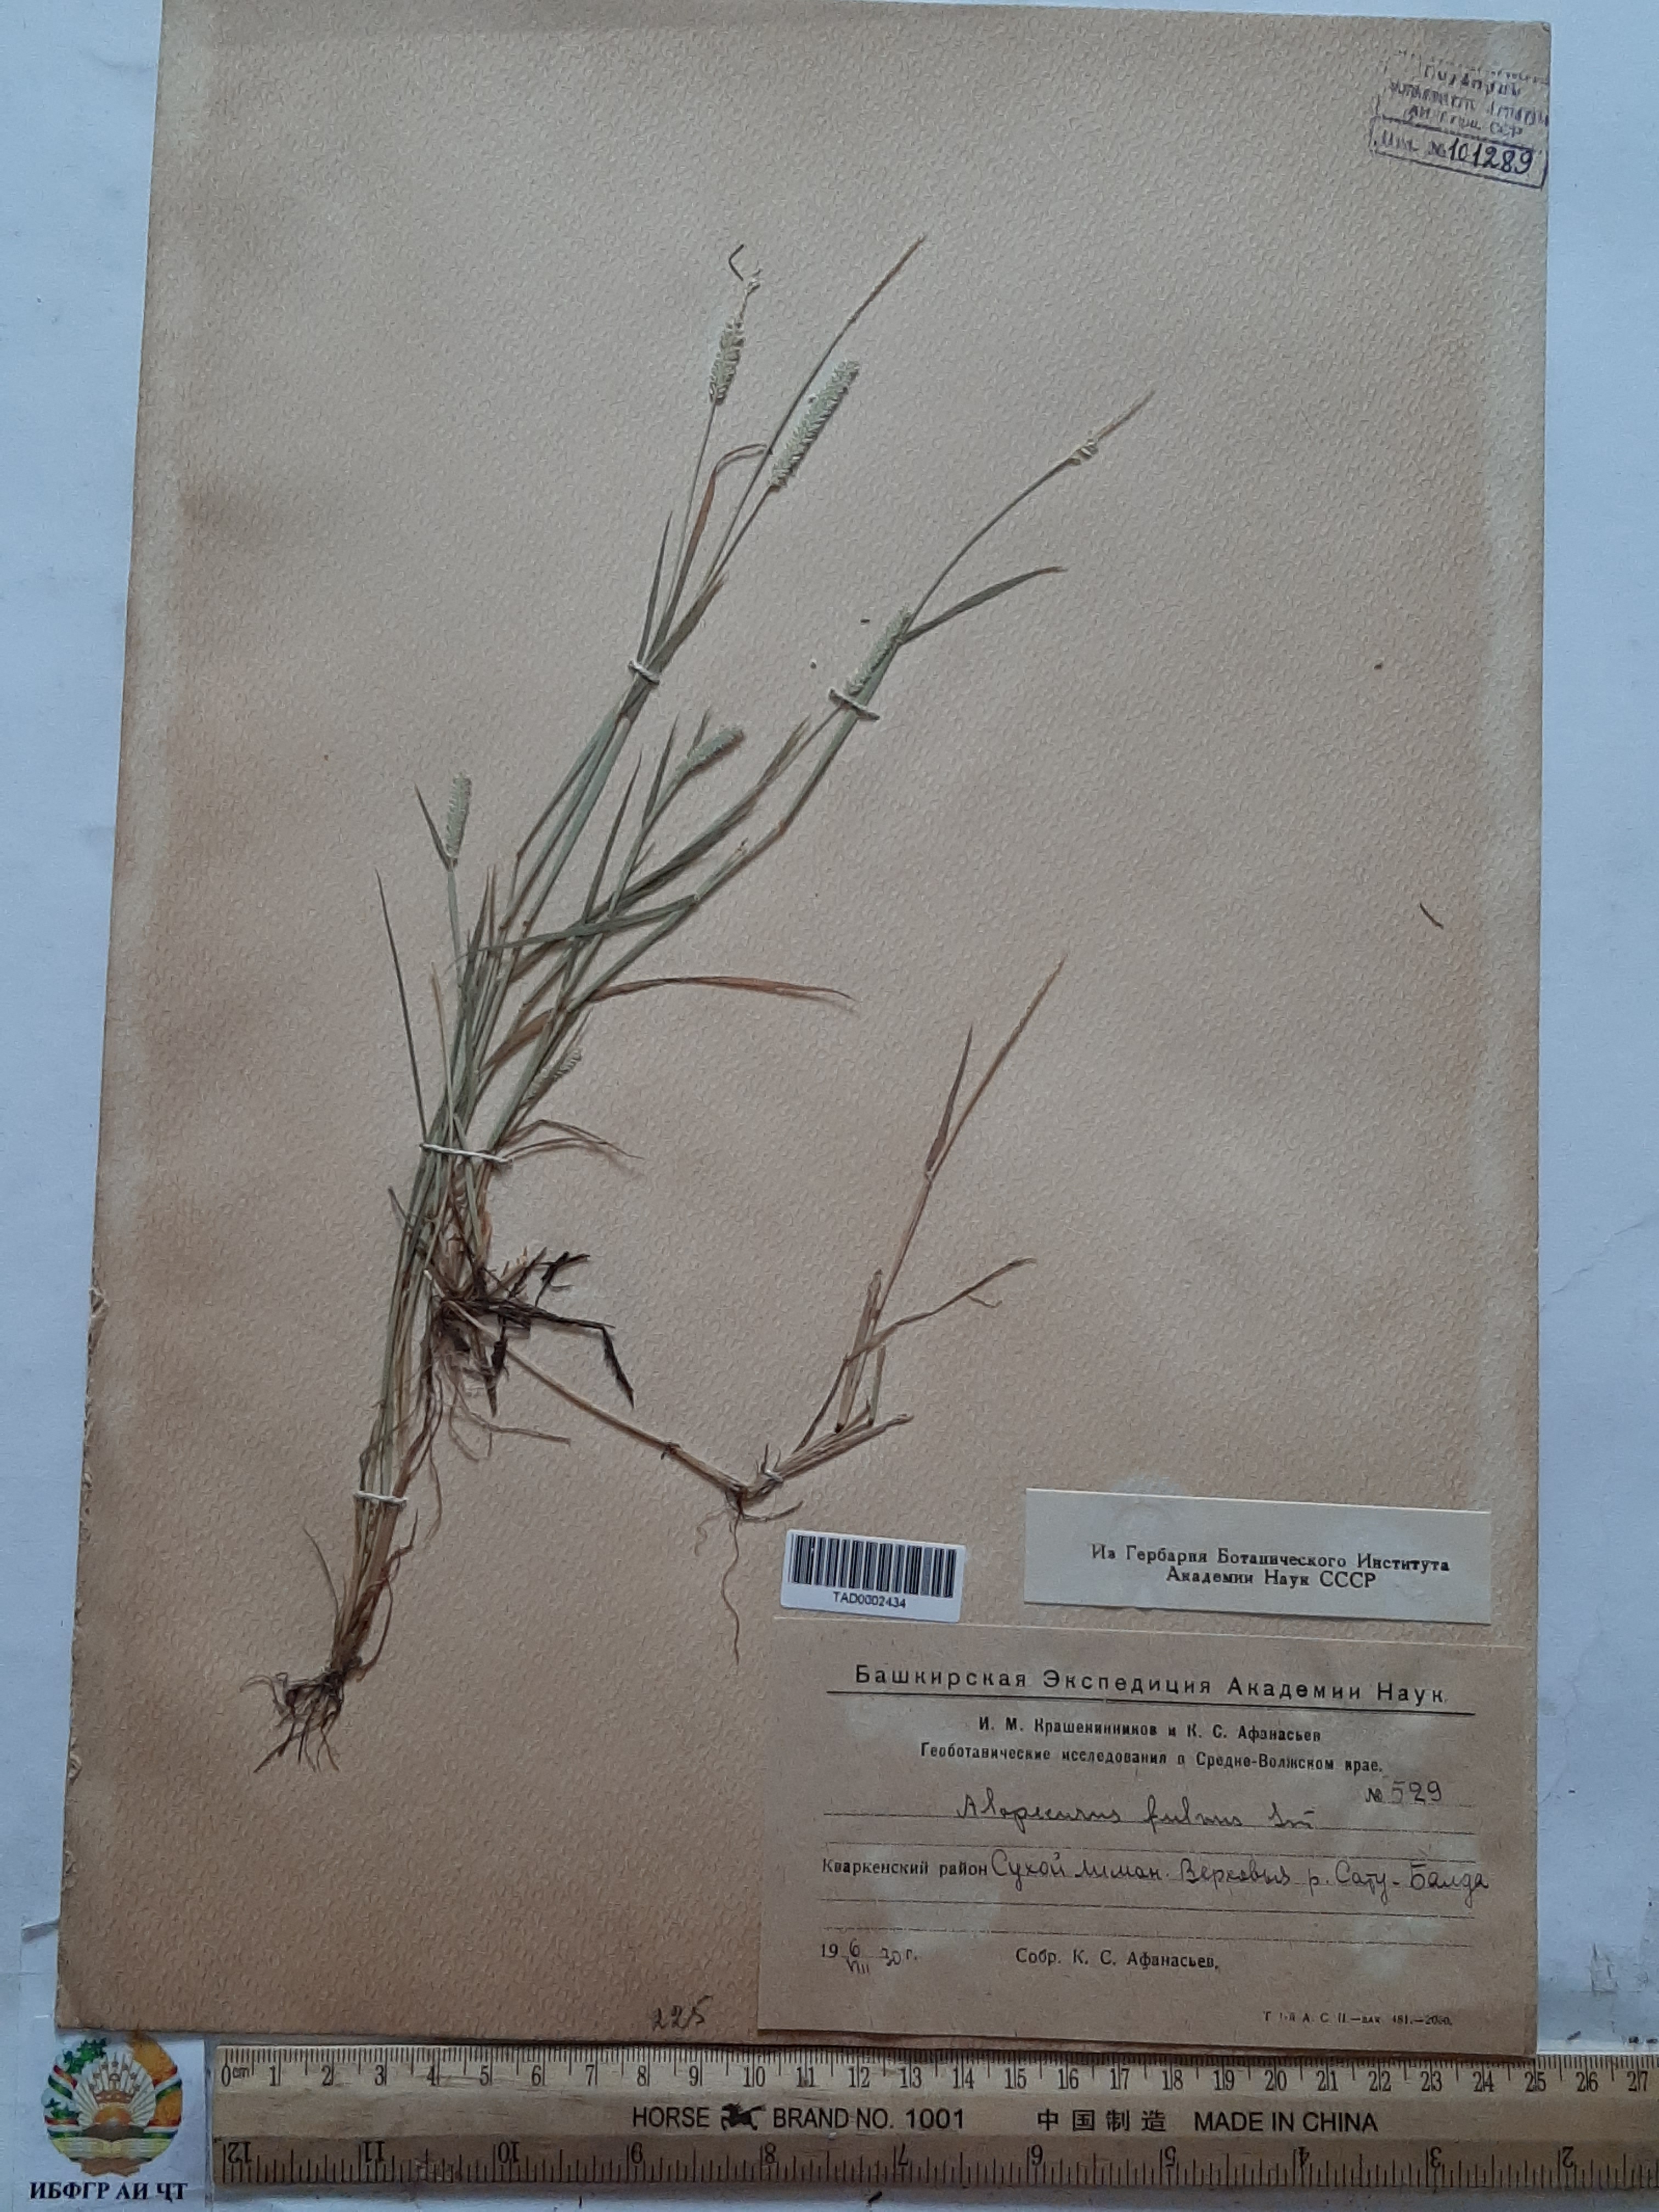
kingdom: Plantae
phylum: Tracheophyta
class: Liliopsida
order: Poales
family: Poaceae
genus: Alopecurus
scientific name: Alopecurus aequalis
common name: Orange foxtail
